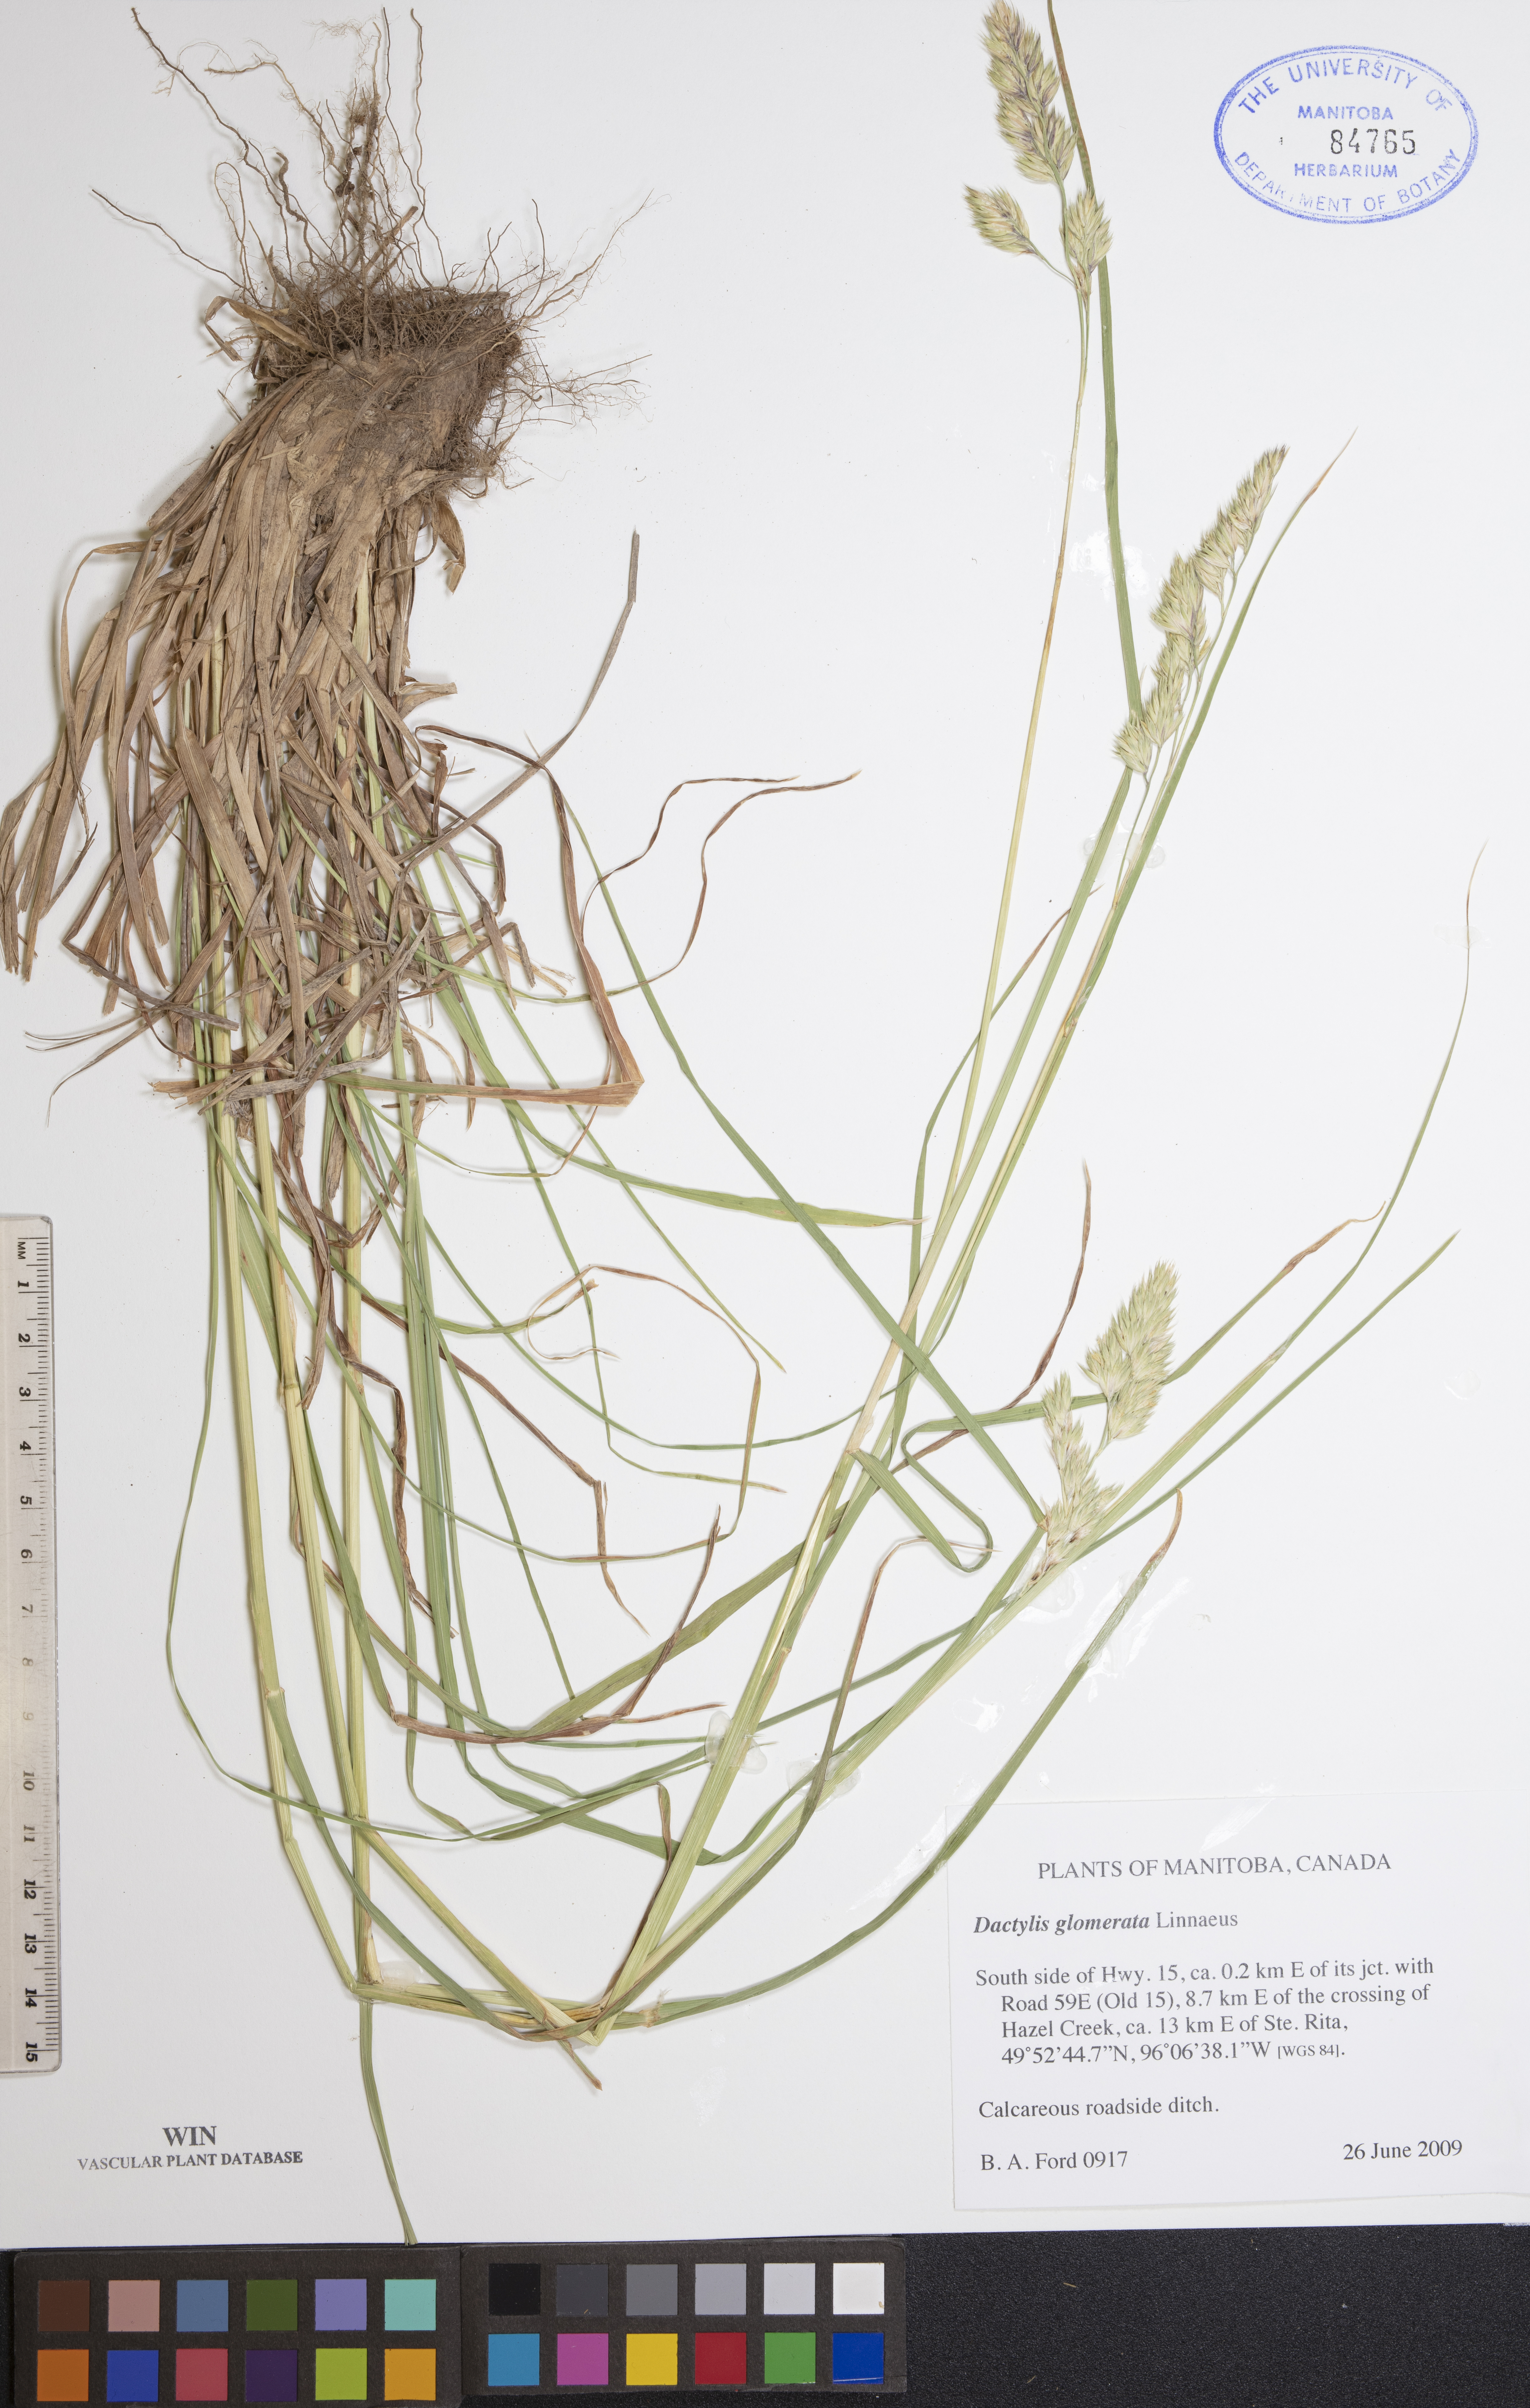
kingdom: Plantae
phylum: Tracheophyta
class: Liliopsida
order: Poales
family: Poaceae
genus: Dactylis
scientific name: Dactylis glomerata
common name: Orchardgrass
